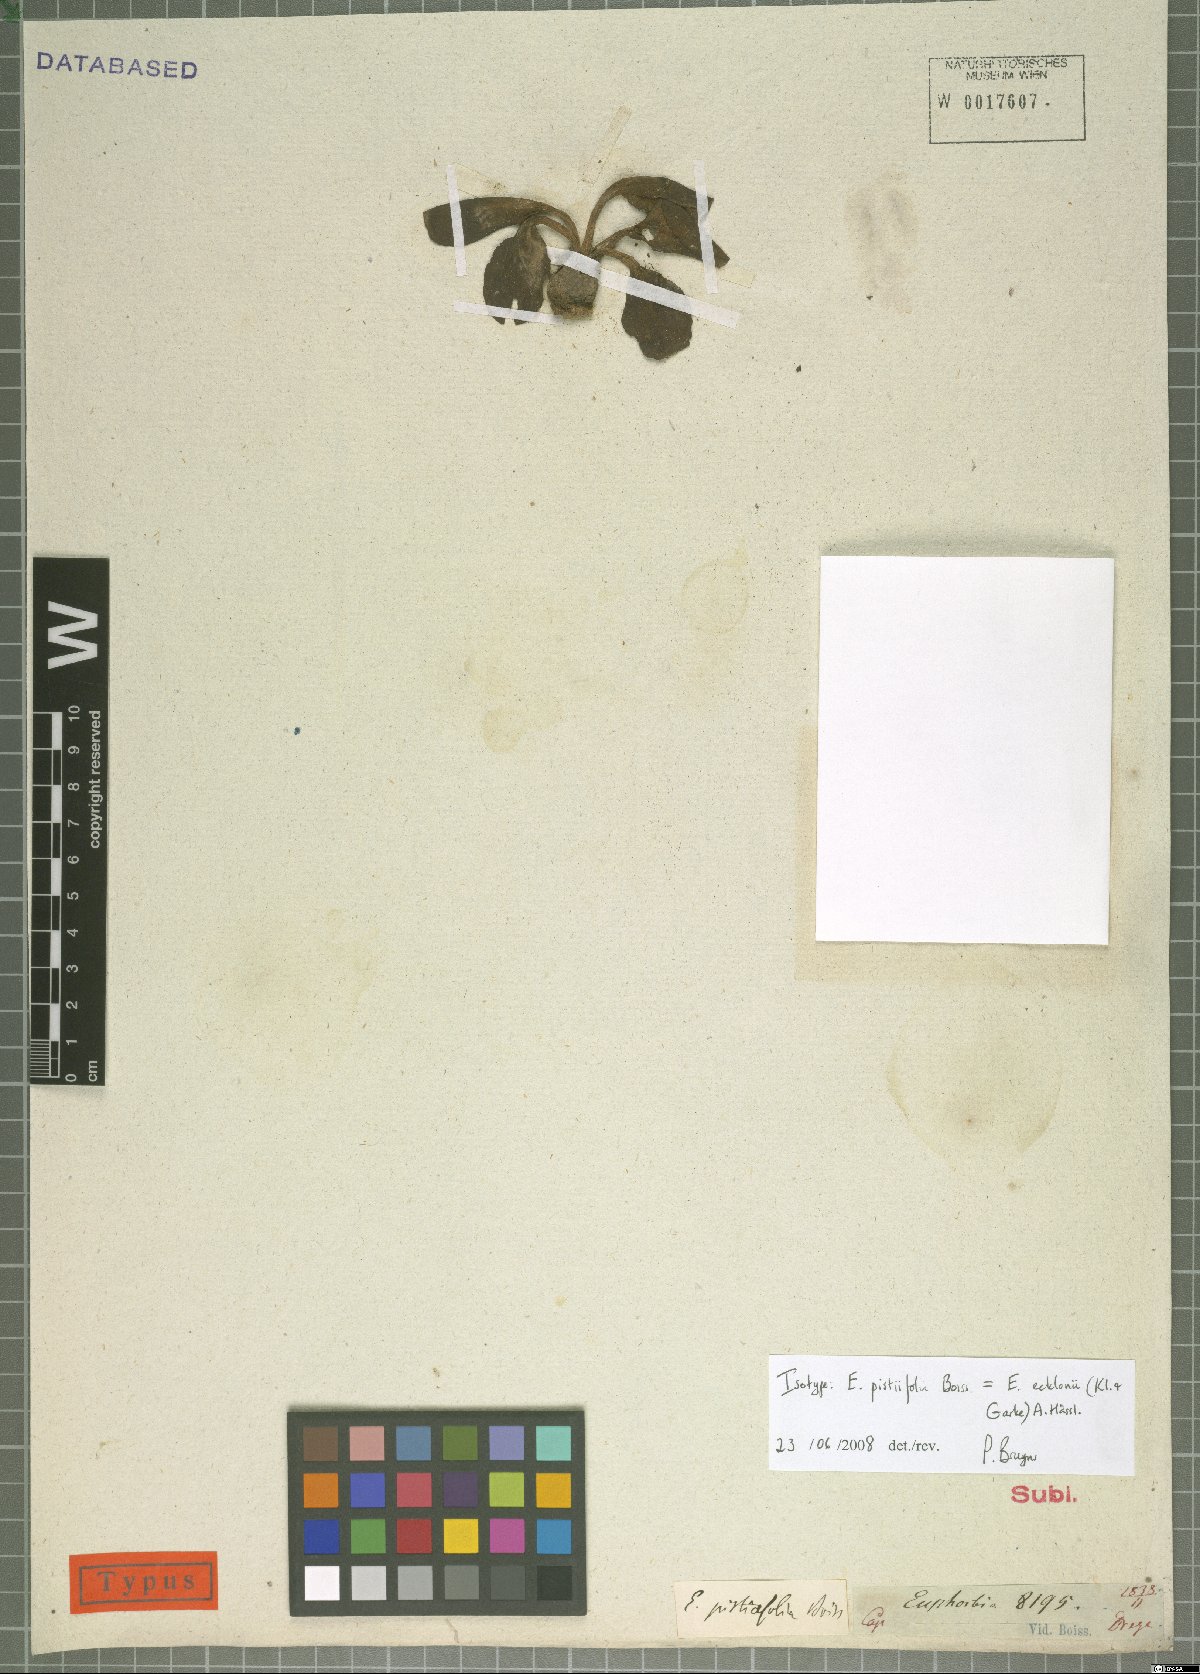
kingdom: Plantae
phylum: Tracheophyta
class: Magnoliopsida
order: Malpighiales
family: Euphorbiaceae
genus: Euphorbia
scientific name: Euphorbia ecklonii
